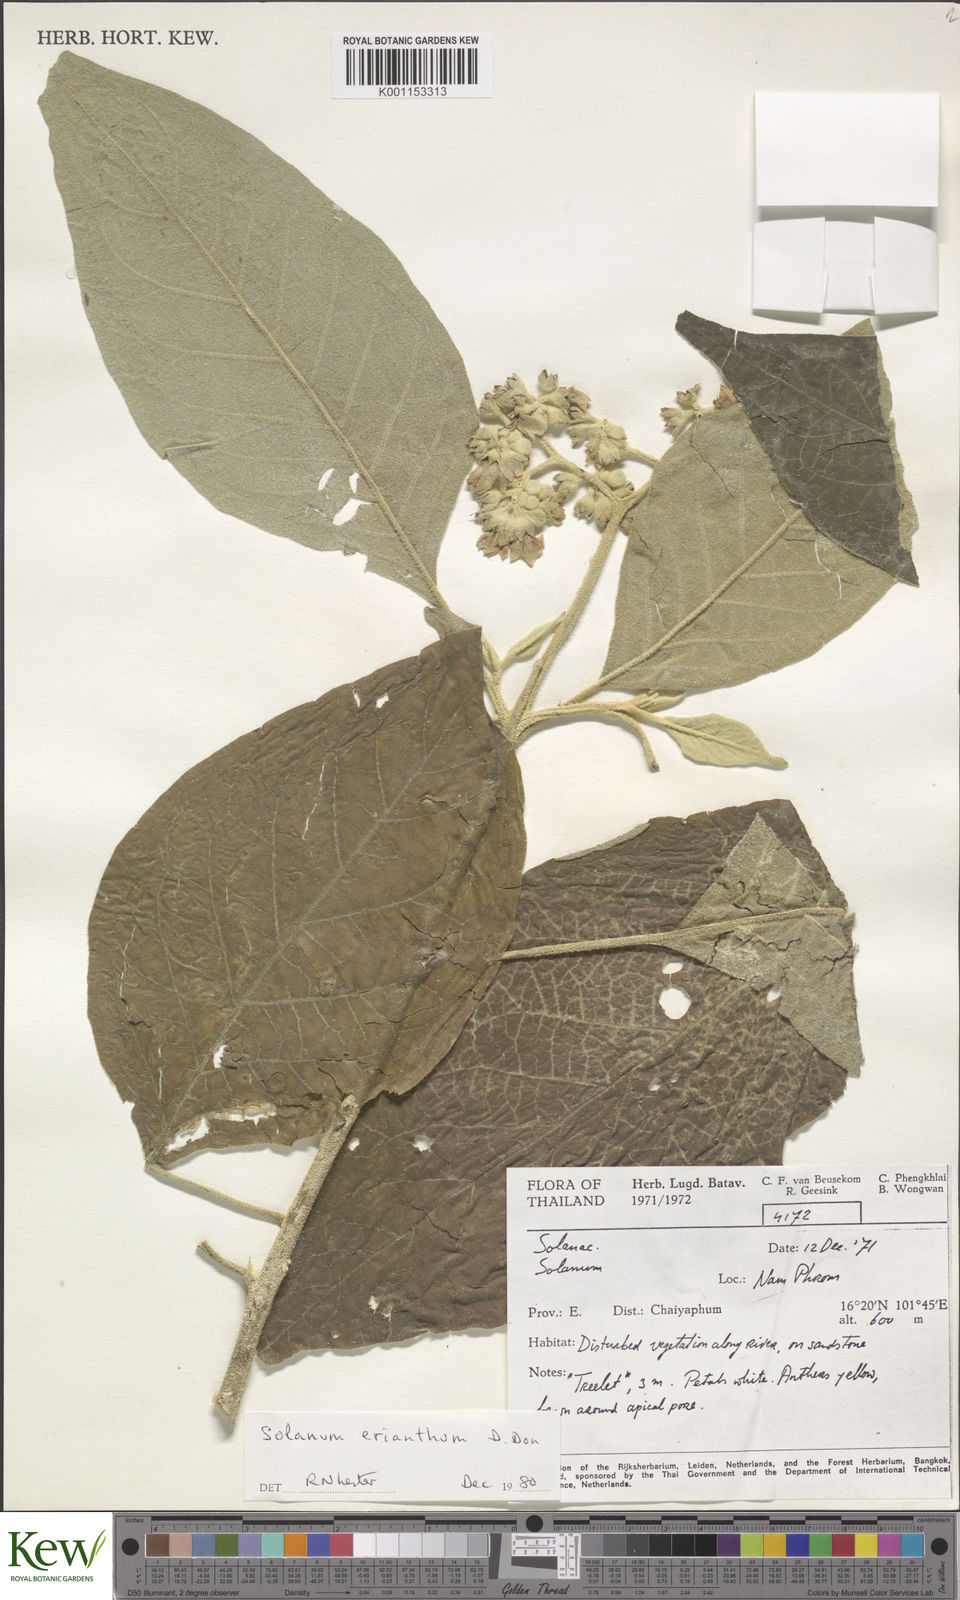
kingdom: Plantae
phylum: Tracheophyta
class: Magnoliopsida
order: Solanales
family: Solanaceae
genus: Solanum
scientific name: Solanum erianthum
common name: Tobacco-tree
